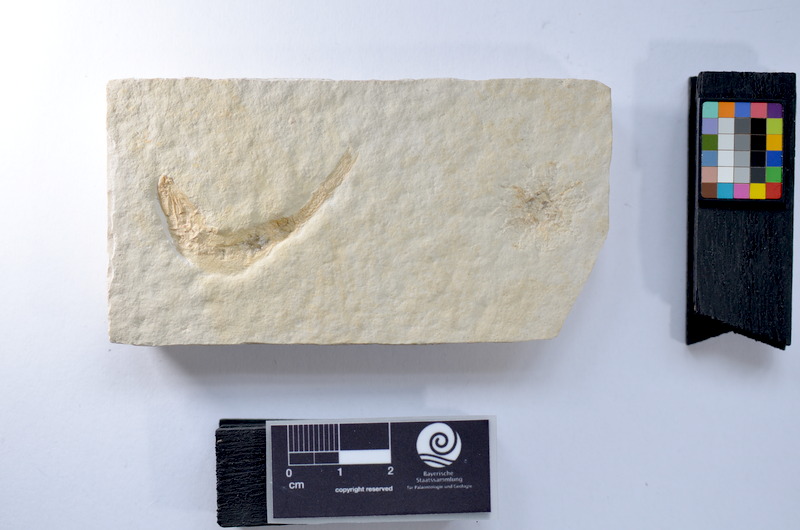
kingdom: Animalia
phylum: Chordata
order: Salmoniformes
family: Orthogonikleithridae
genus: Leptolepides
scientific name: Leptolepides sprattiformis
